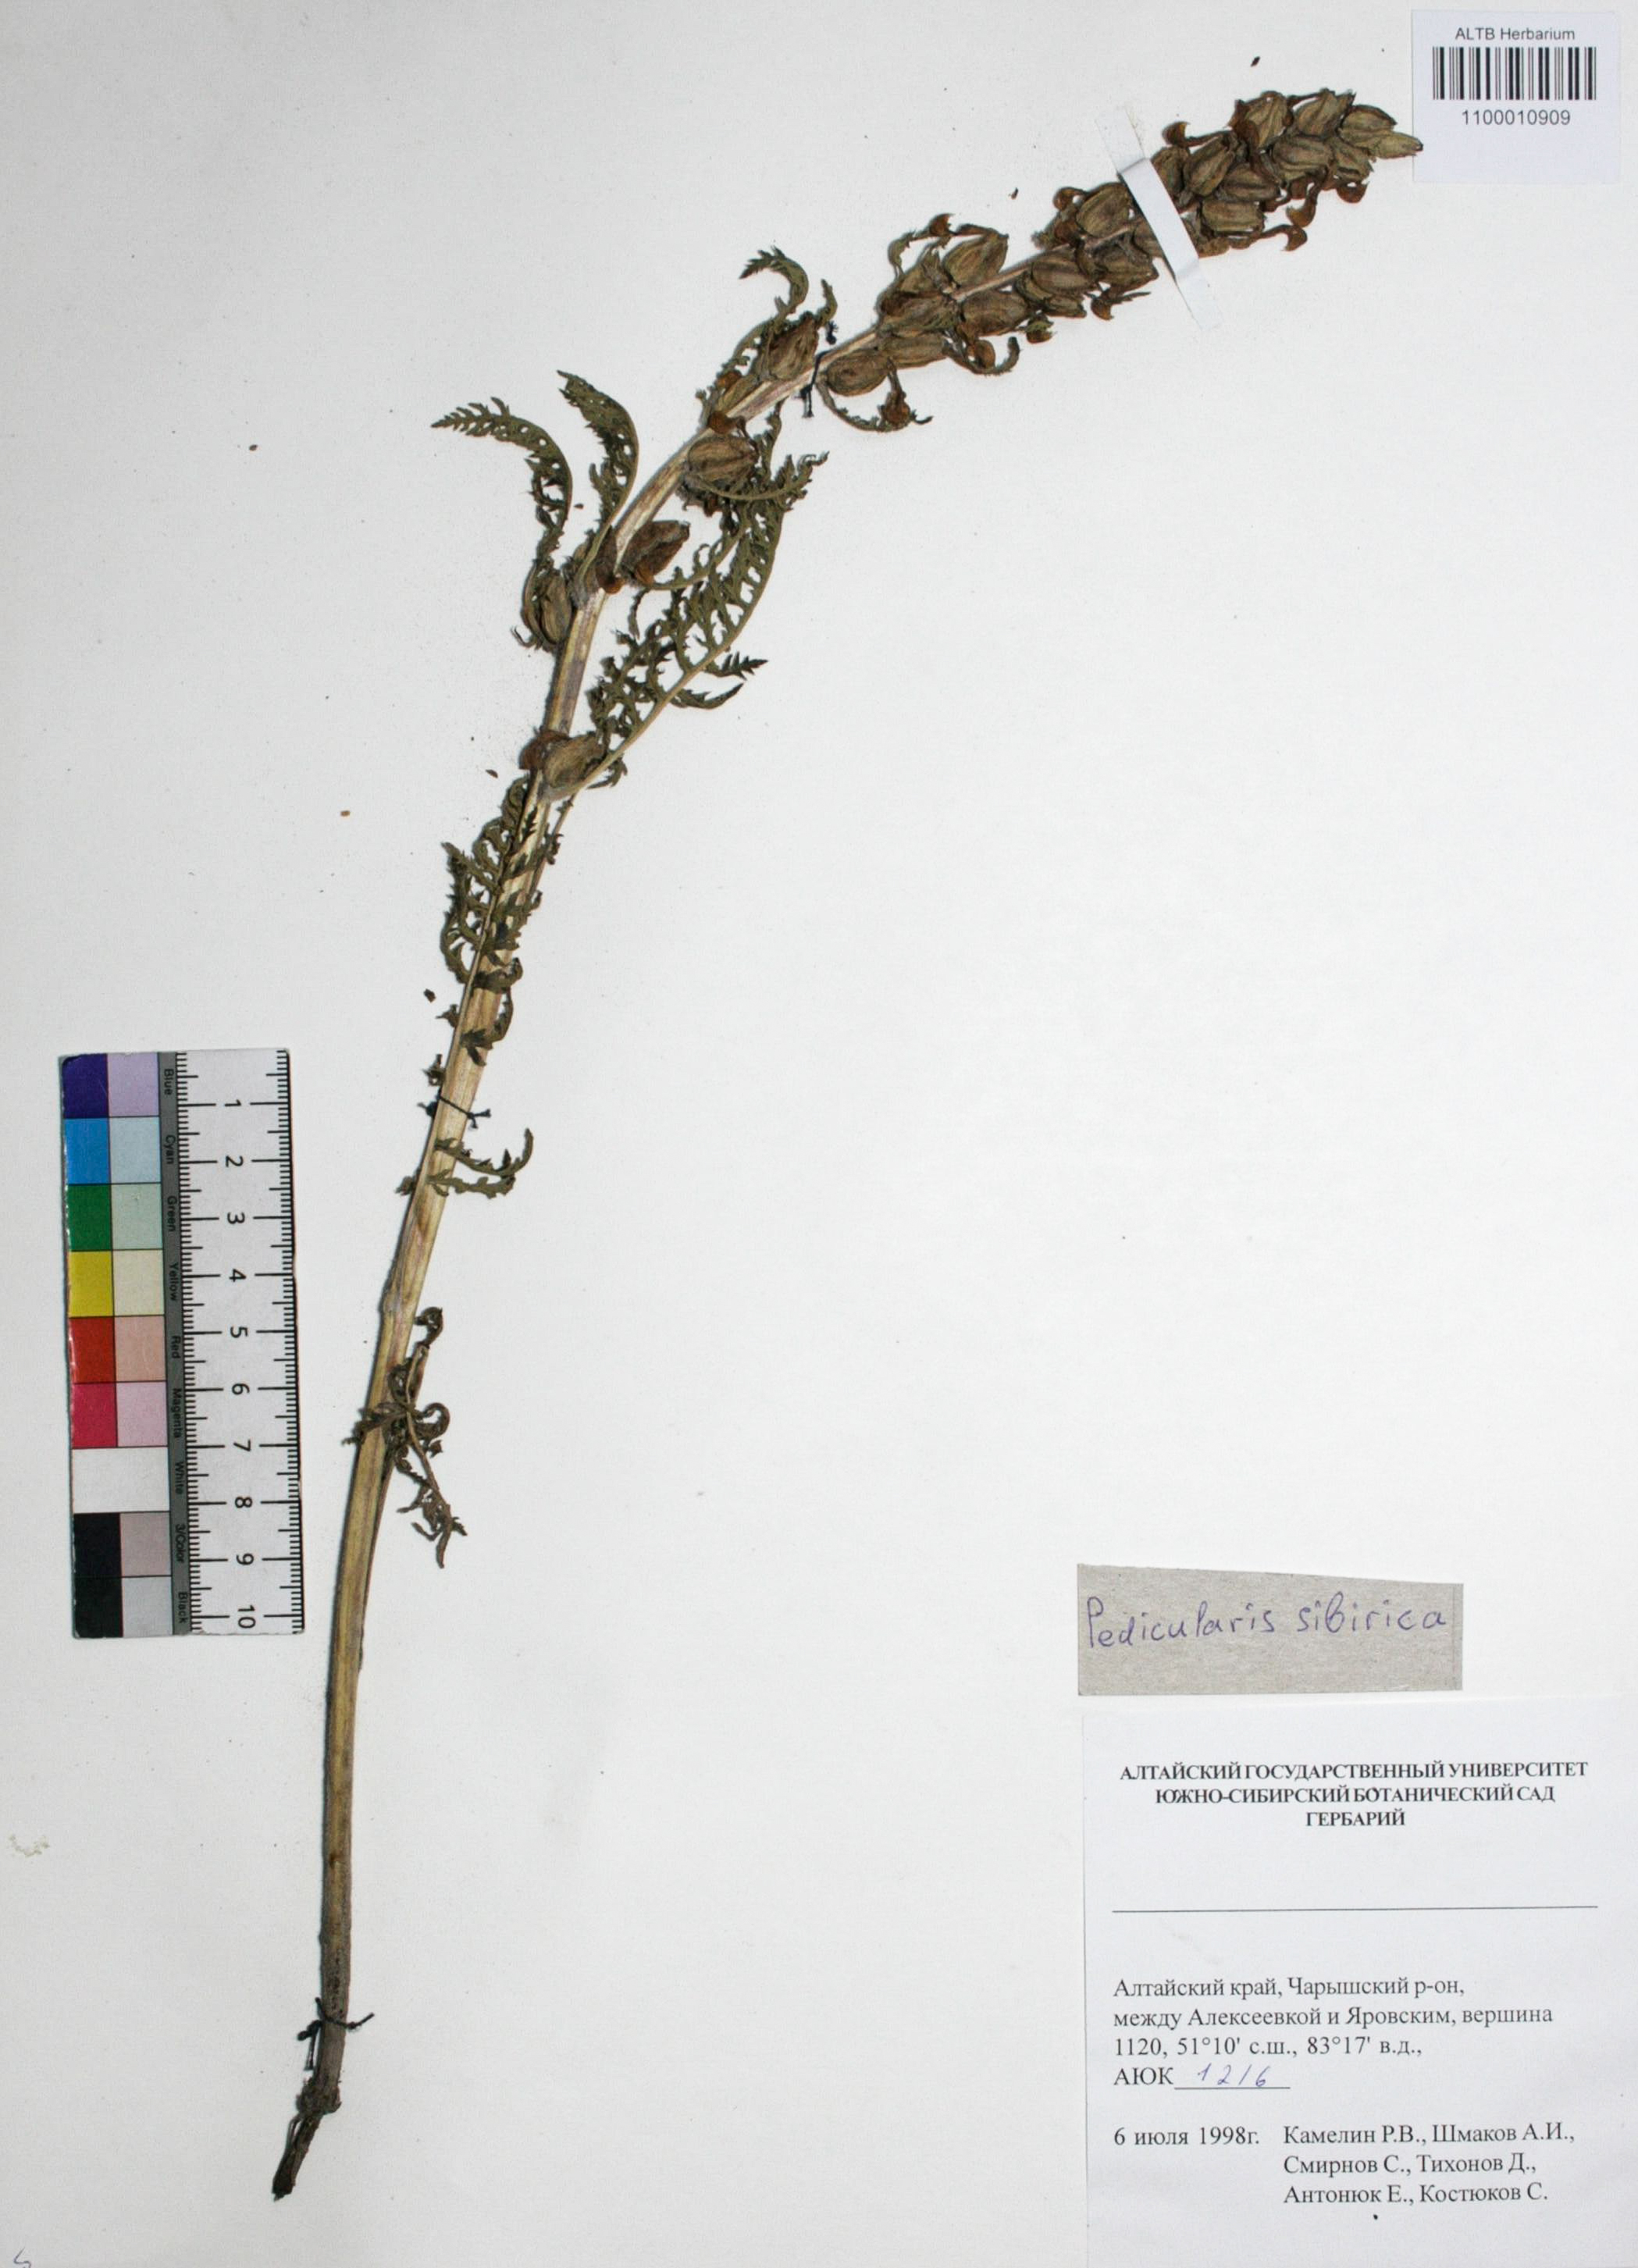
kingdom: Plantae
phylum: Tracheophyta
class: Magnoliopsida
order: Lamiales
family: Orobanchaceae
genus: Pedicularis
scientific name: Pedicularis sibirica
